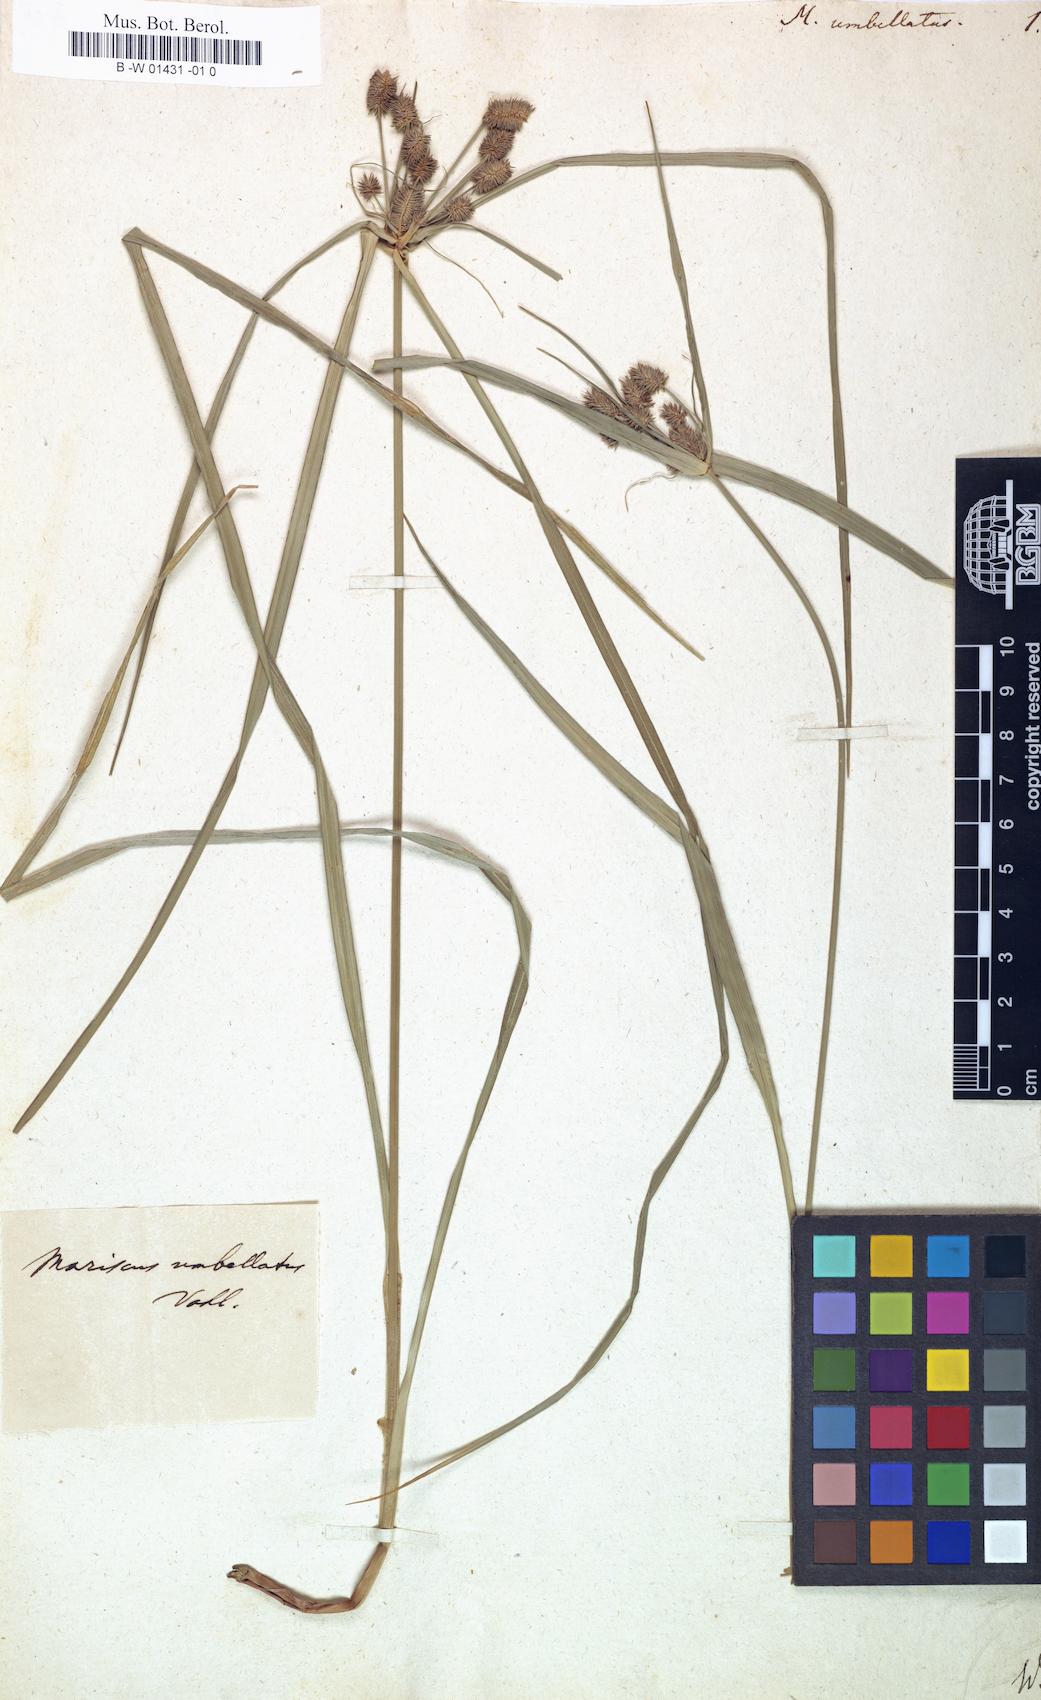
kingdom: Plantae
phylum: Tracheophyta
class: Liliopsida
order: Poales
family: Cyperaceae
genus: Cyperus
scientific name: Cyperus cyperoides
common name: Pacific island flat sedge
